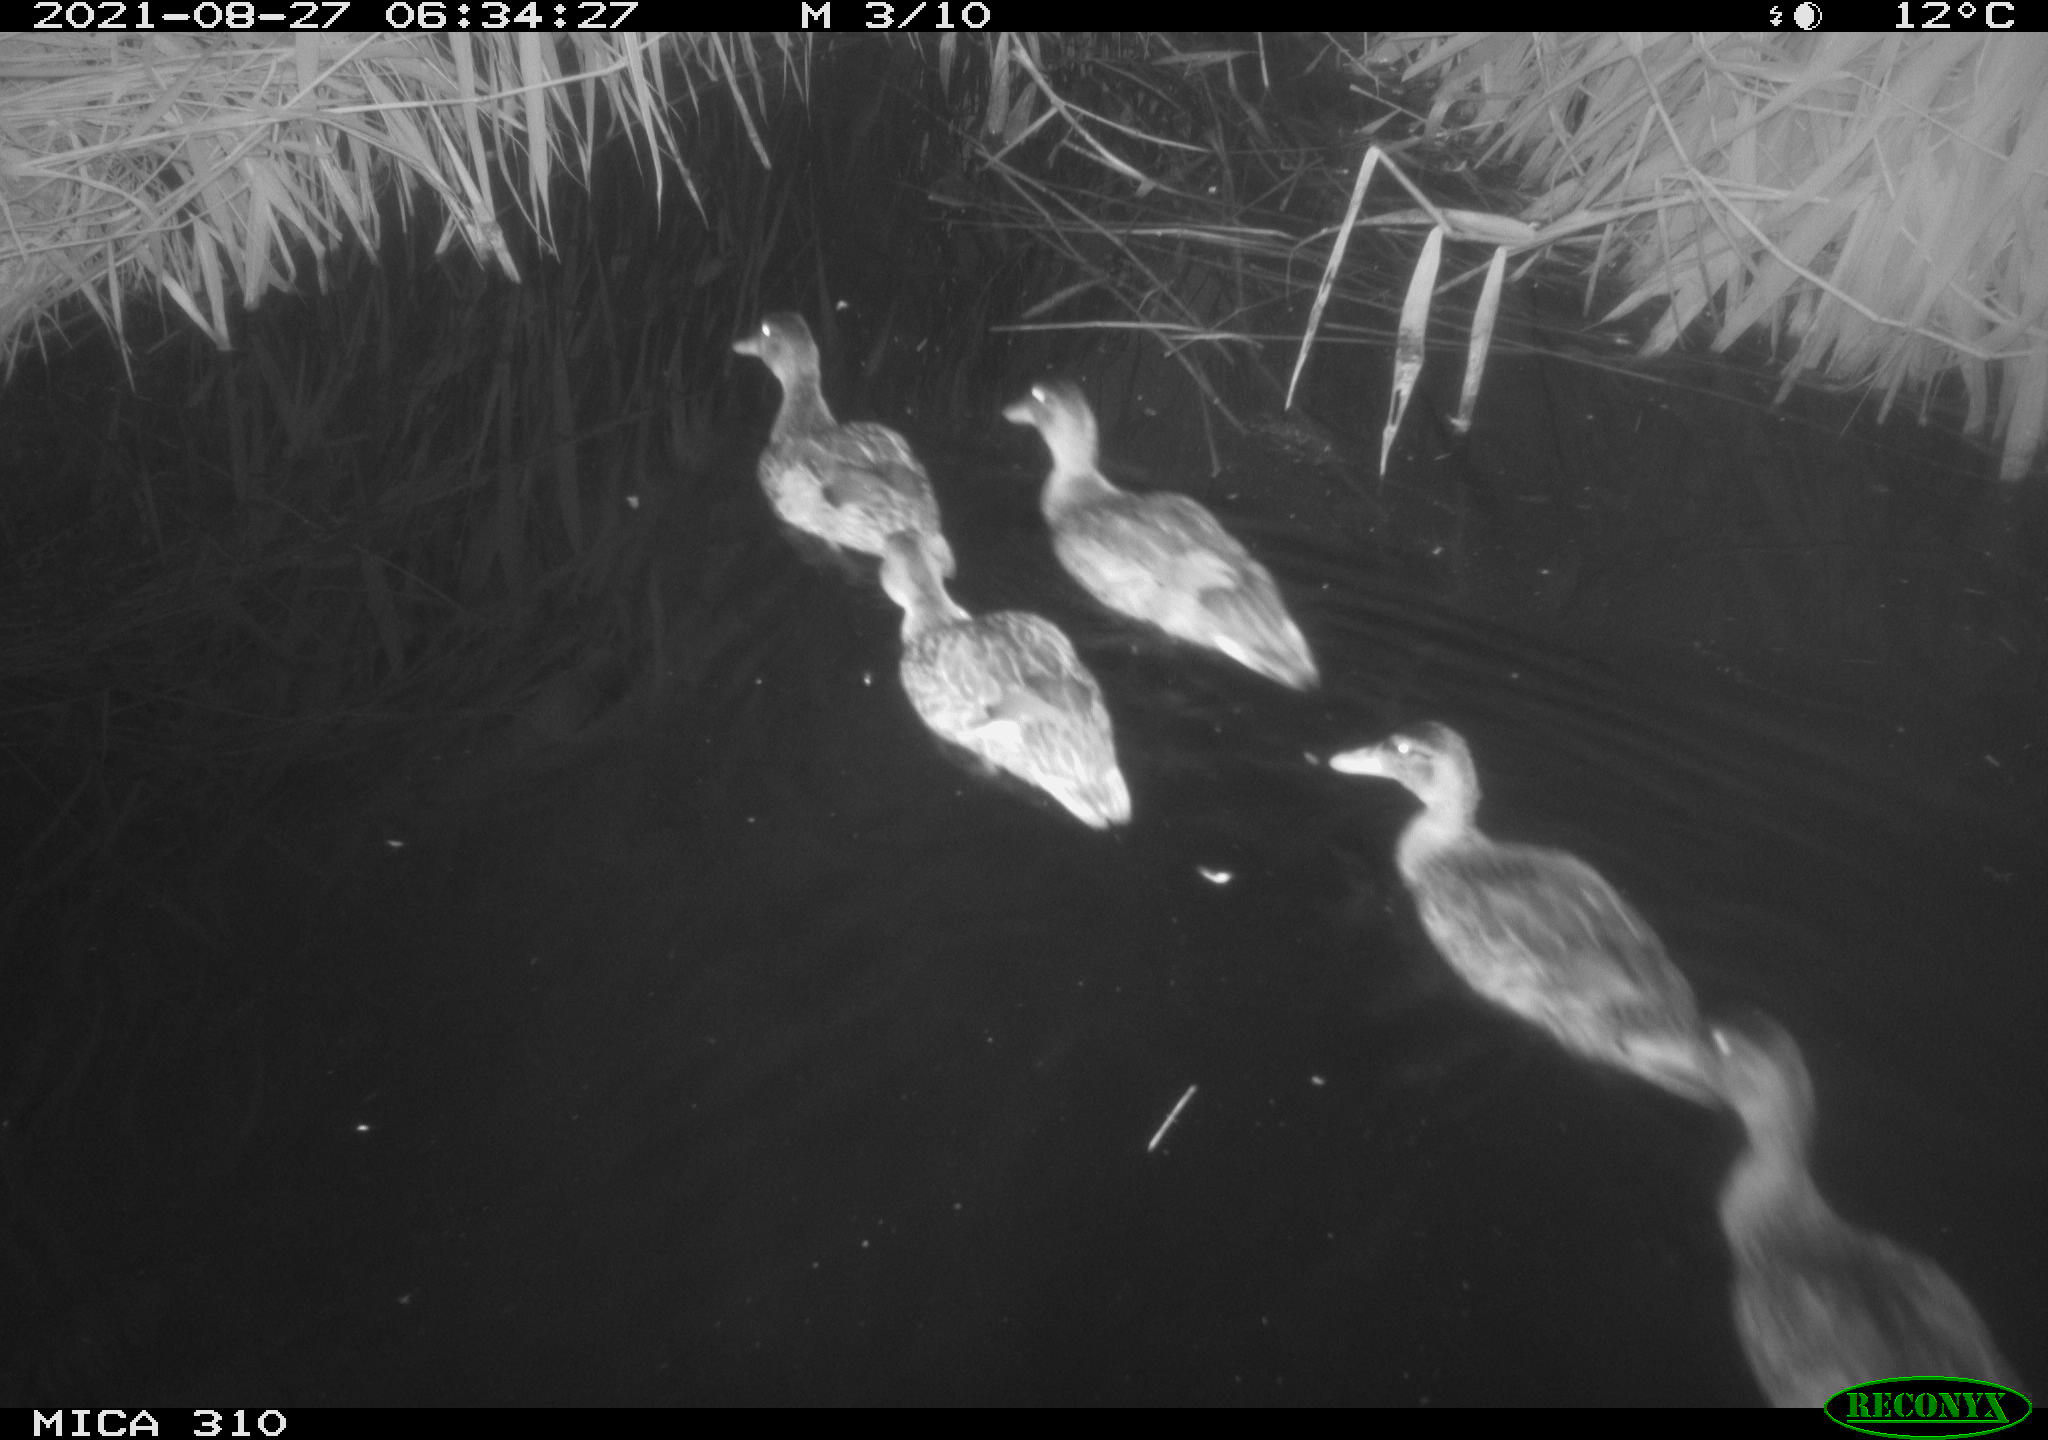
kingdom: Animalia
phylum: Chordata
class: Aves
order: Anseriformes
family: Anatidae
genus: Mareca
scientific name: Mareca strepera
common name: Gadwall
